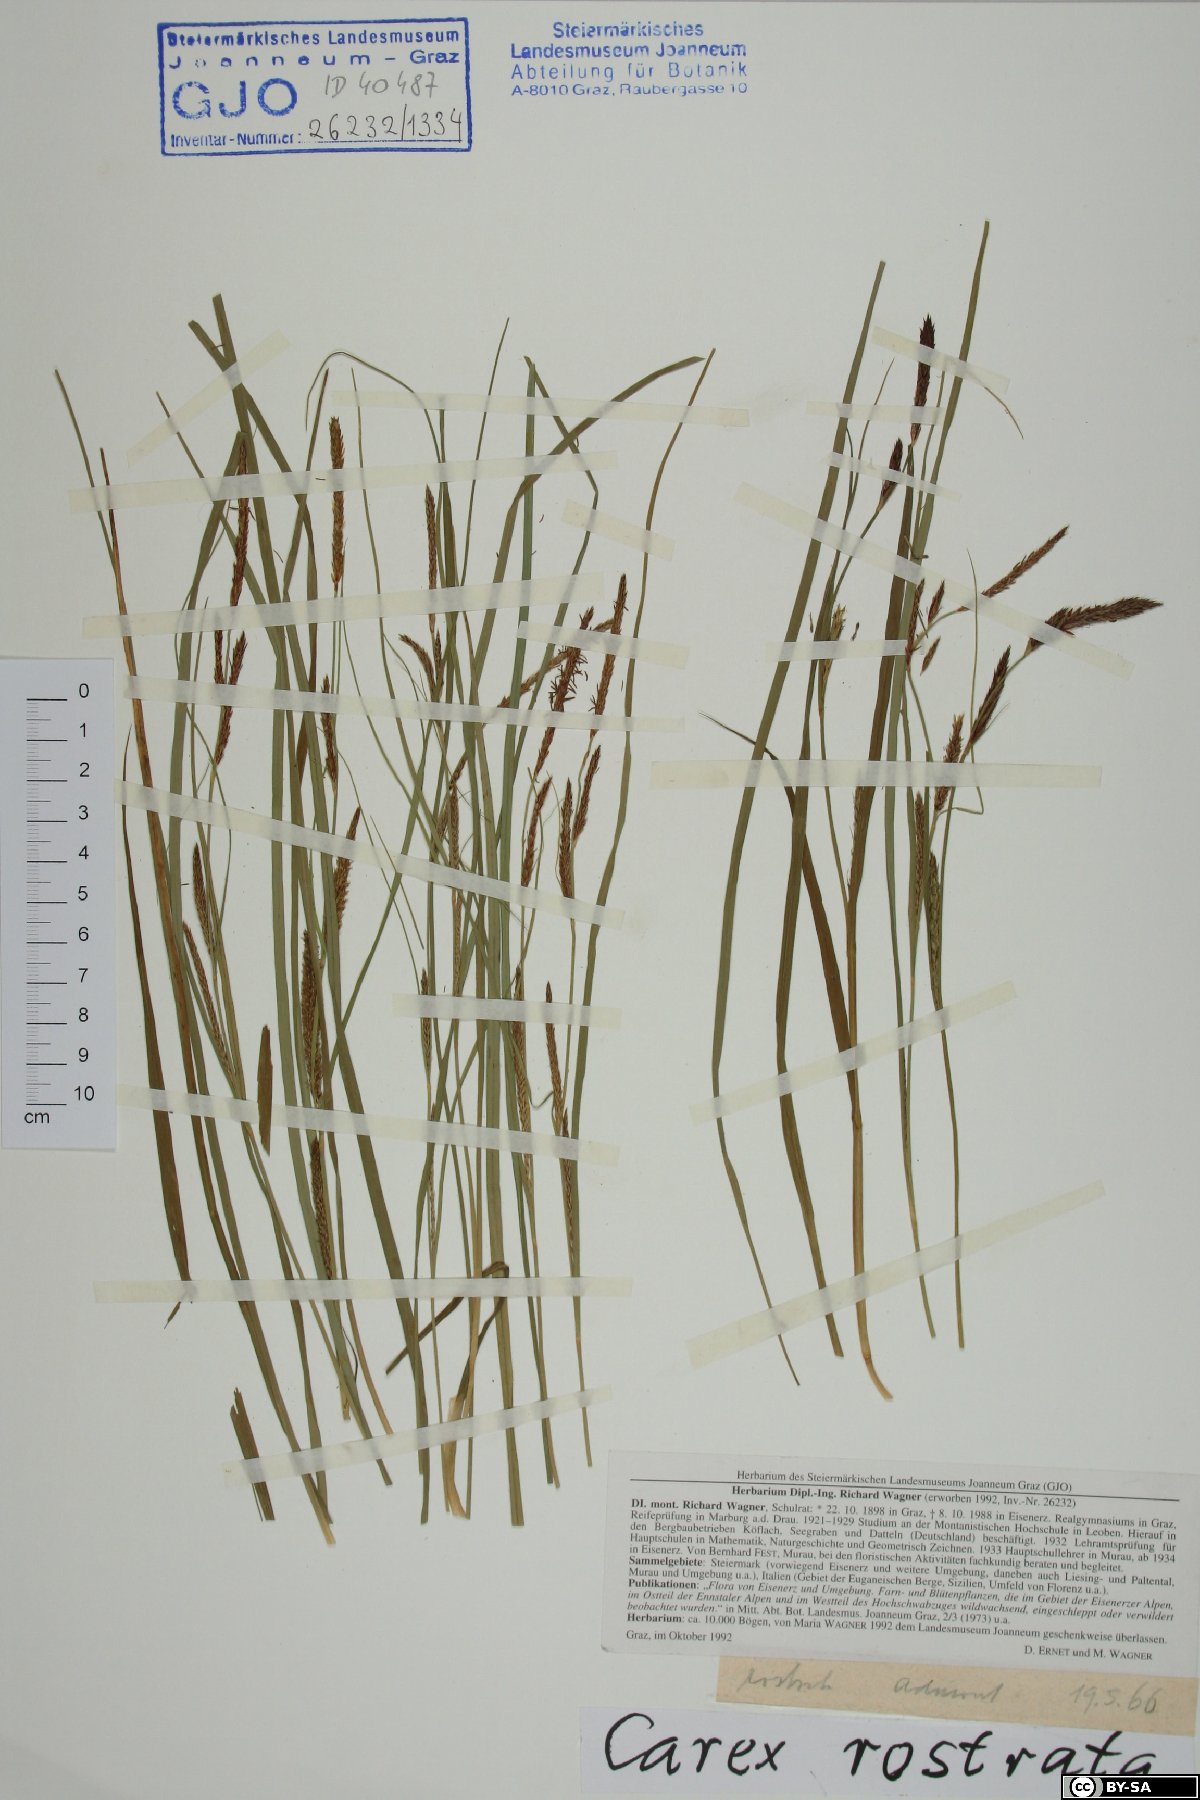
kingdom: Plantae
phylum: Tracheophyta
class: Liliopsida
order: Poales
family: Cyperaceae
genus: Carex
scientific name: Carex rostrata
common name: Bottle sedge
